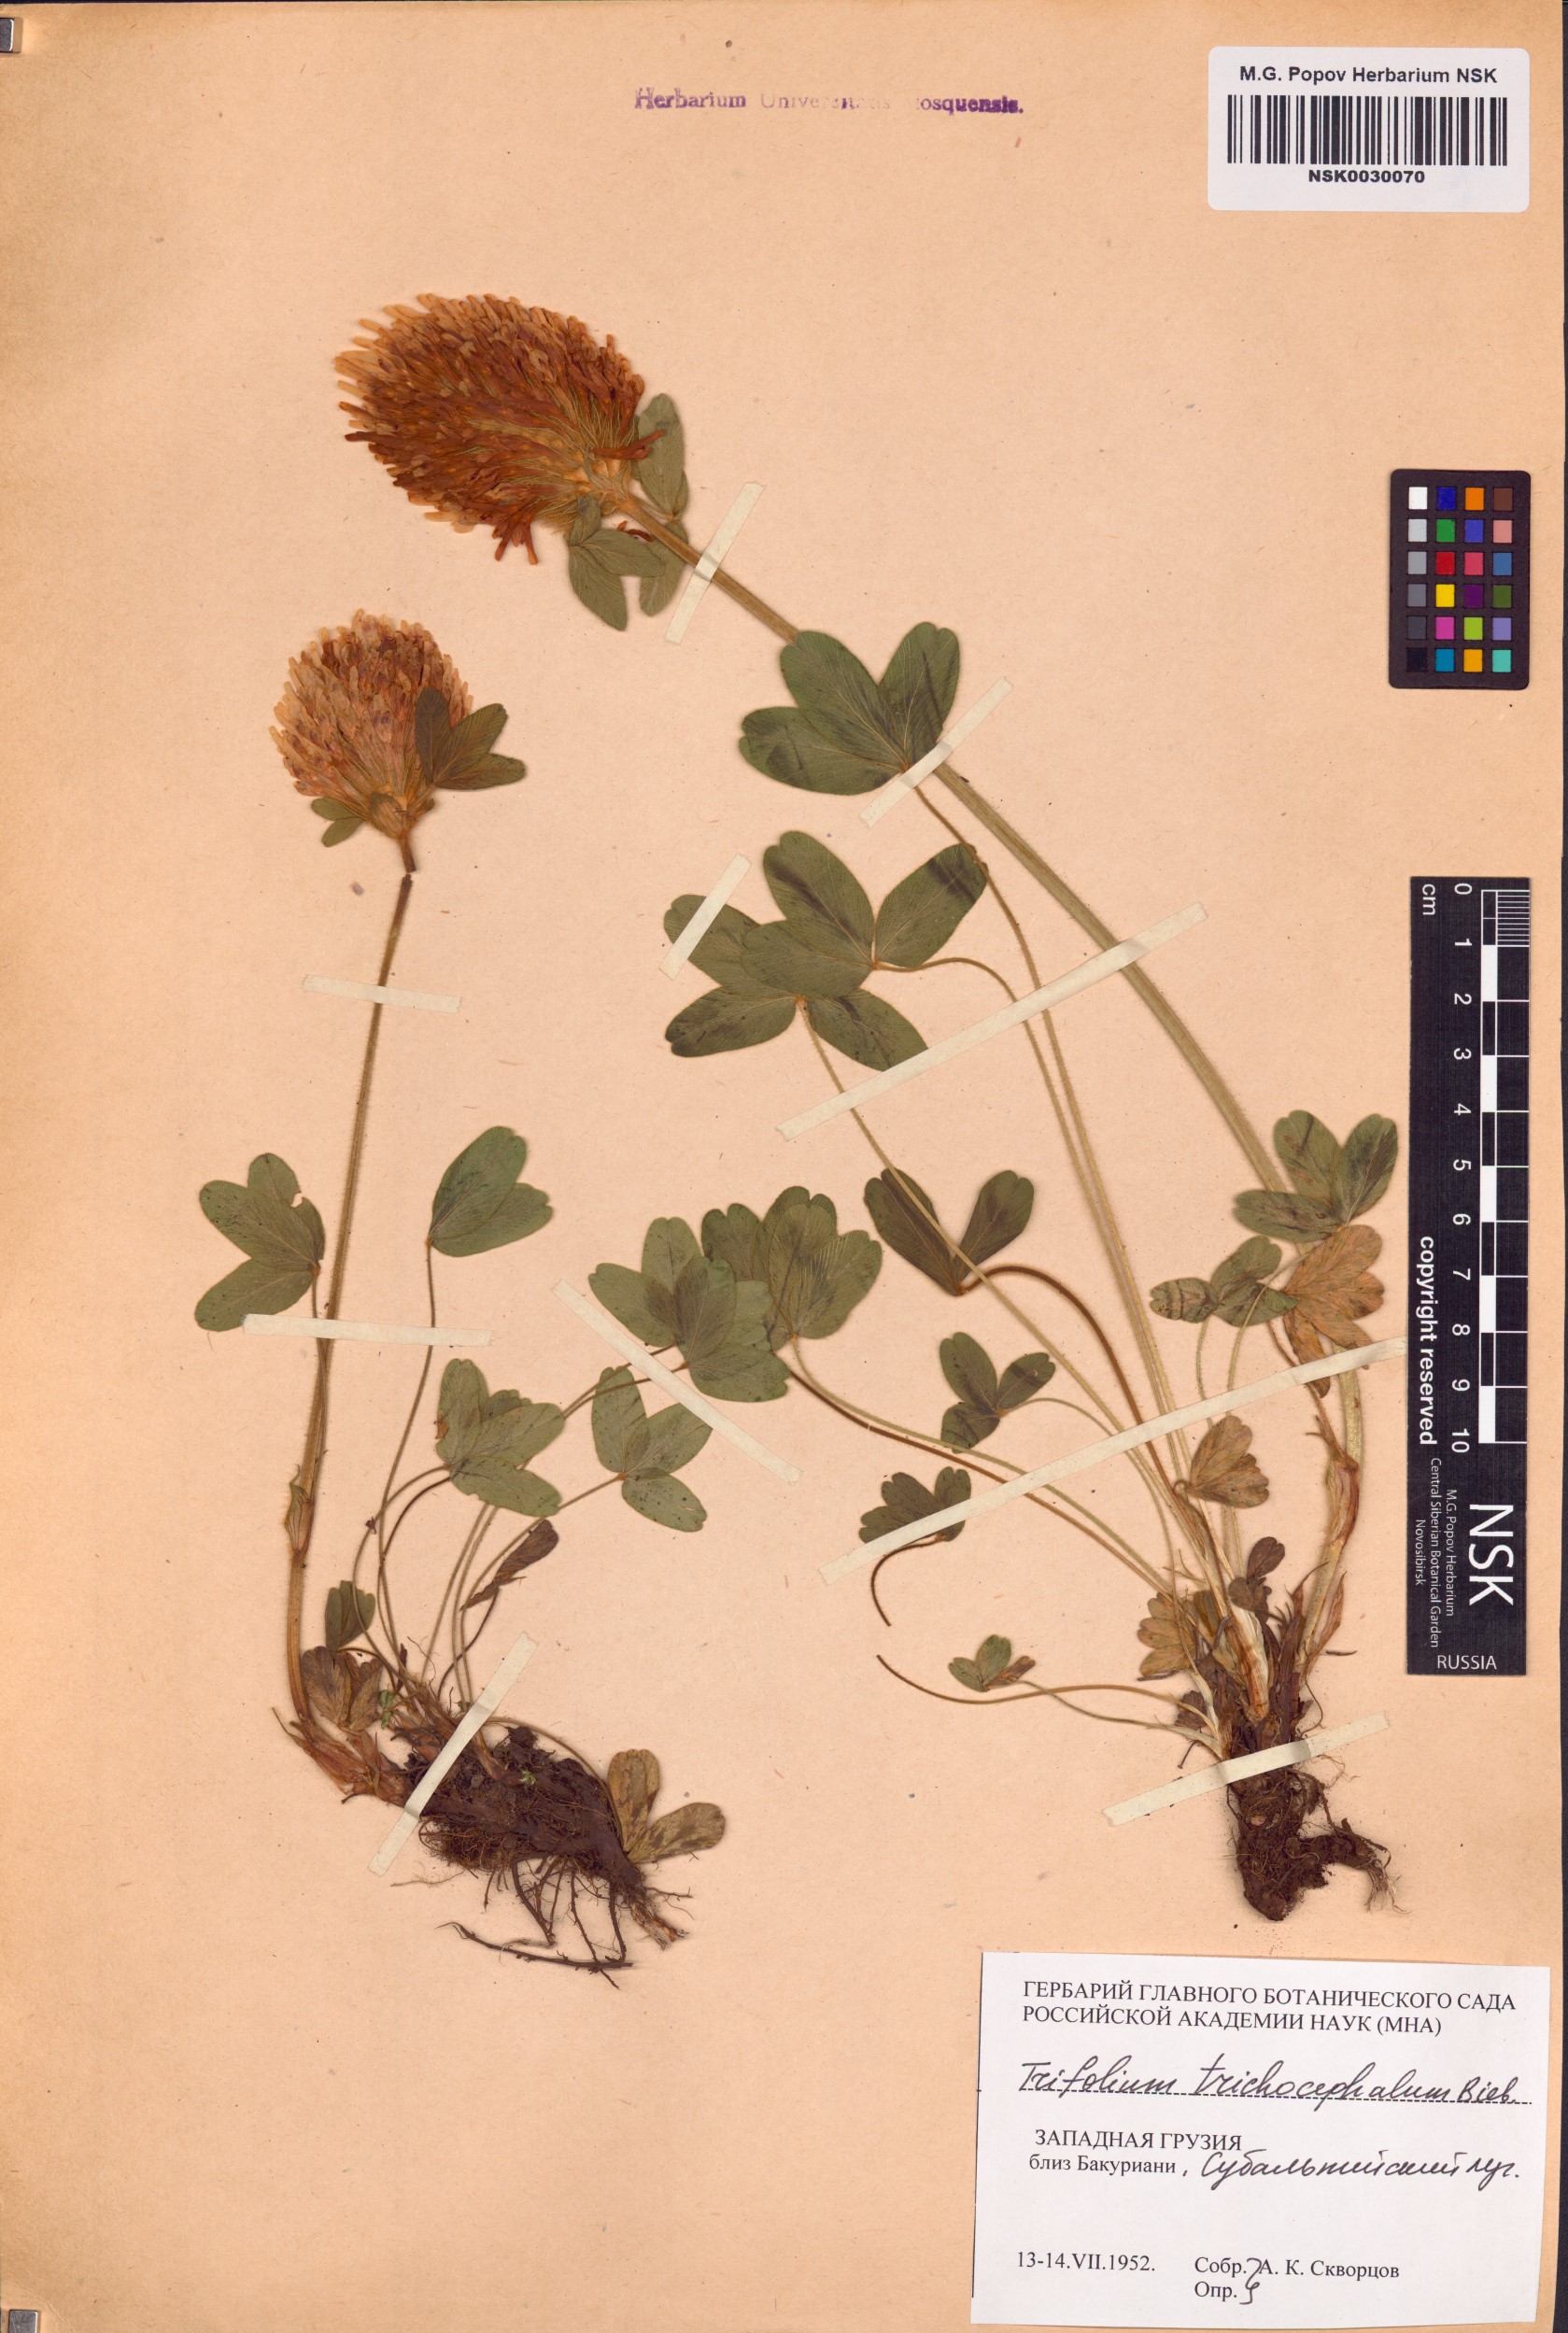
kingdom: Plantae
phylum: Tracheophyta
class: Magnoliopsida
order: Fabales
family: Fabaceae
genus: Trifolium
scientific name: Trifolium trichocephalum
